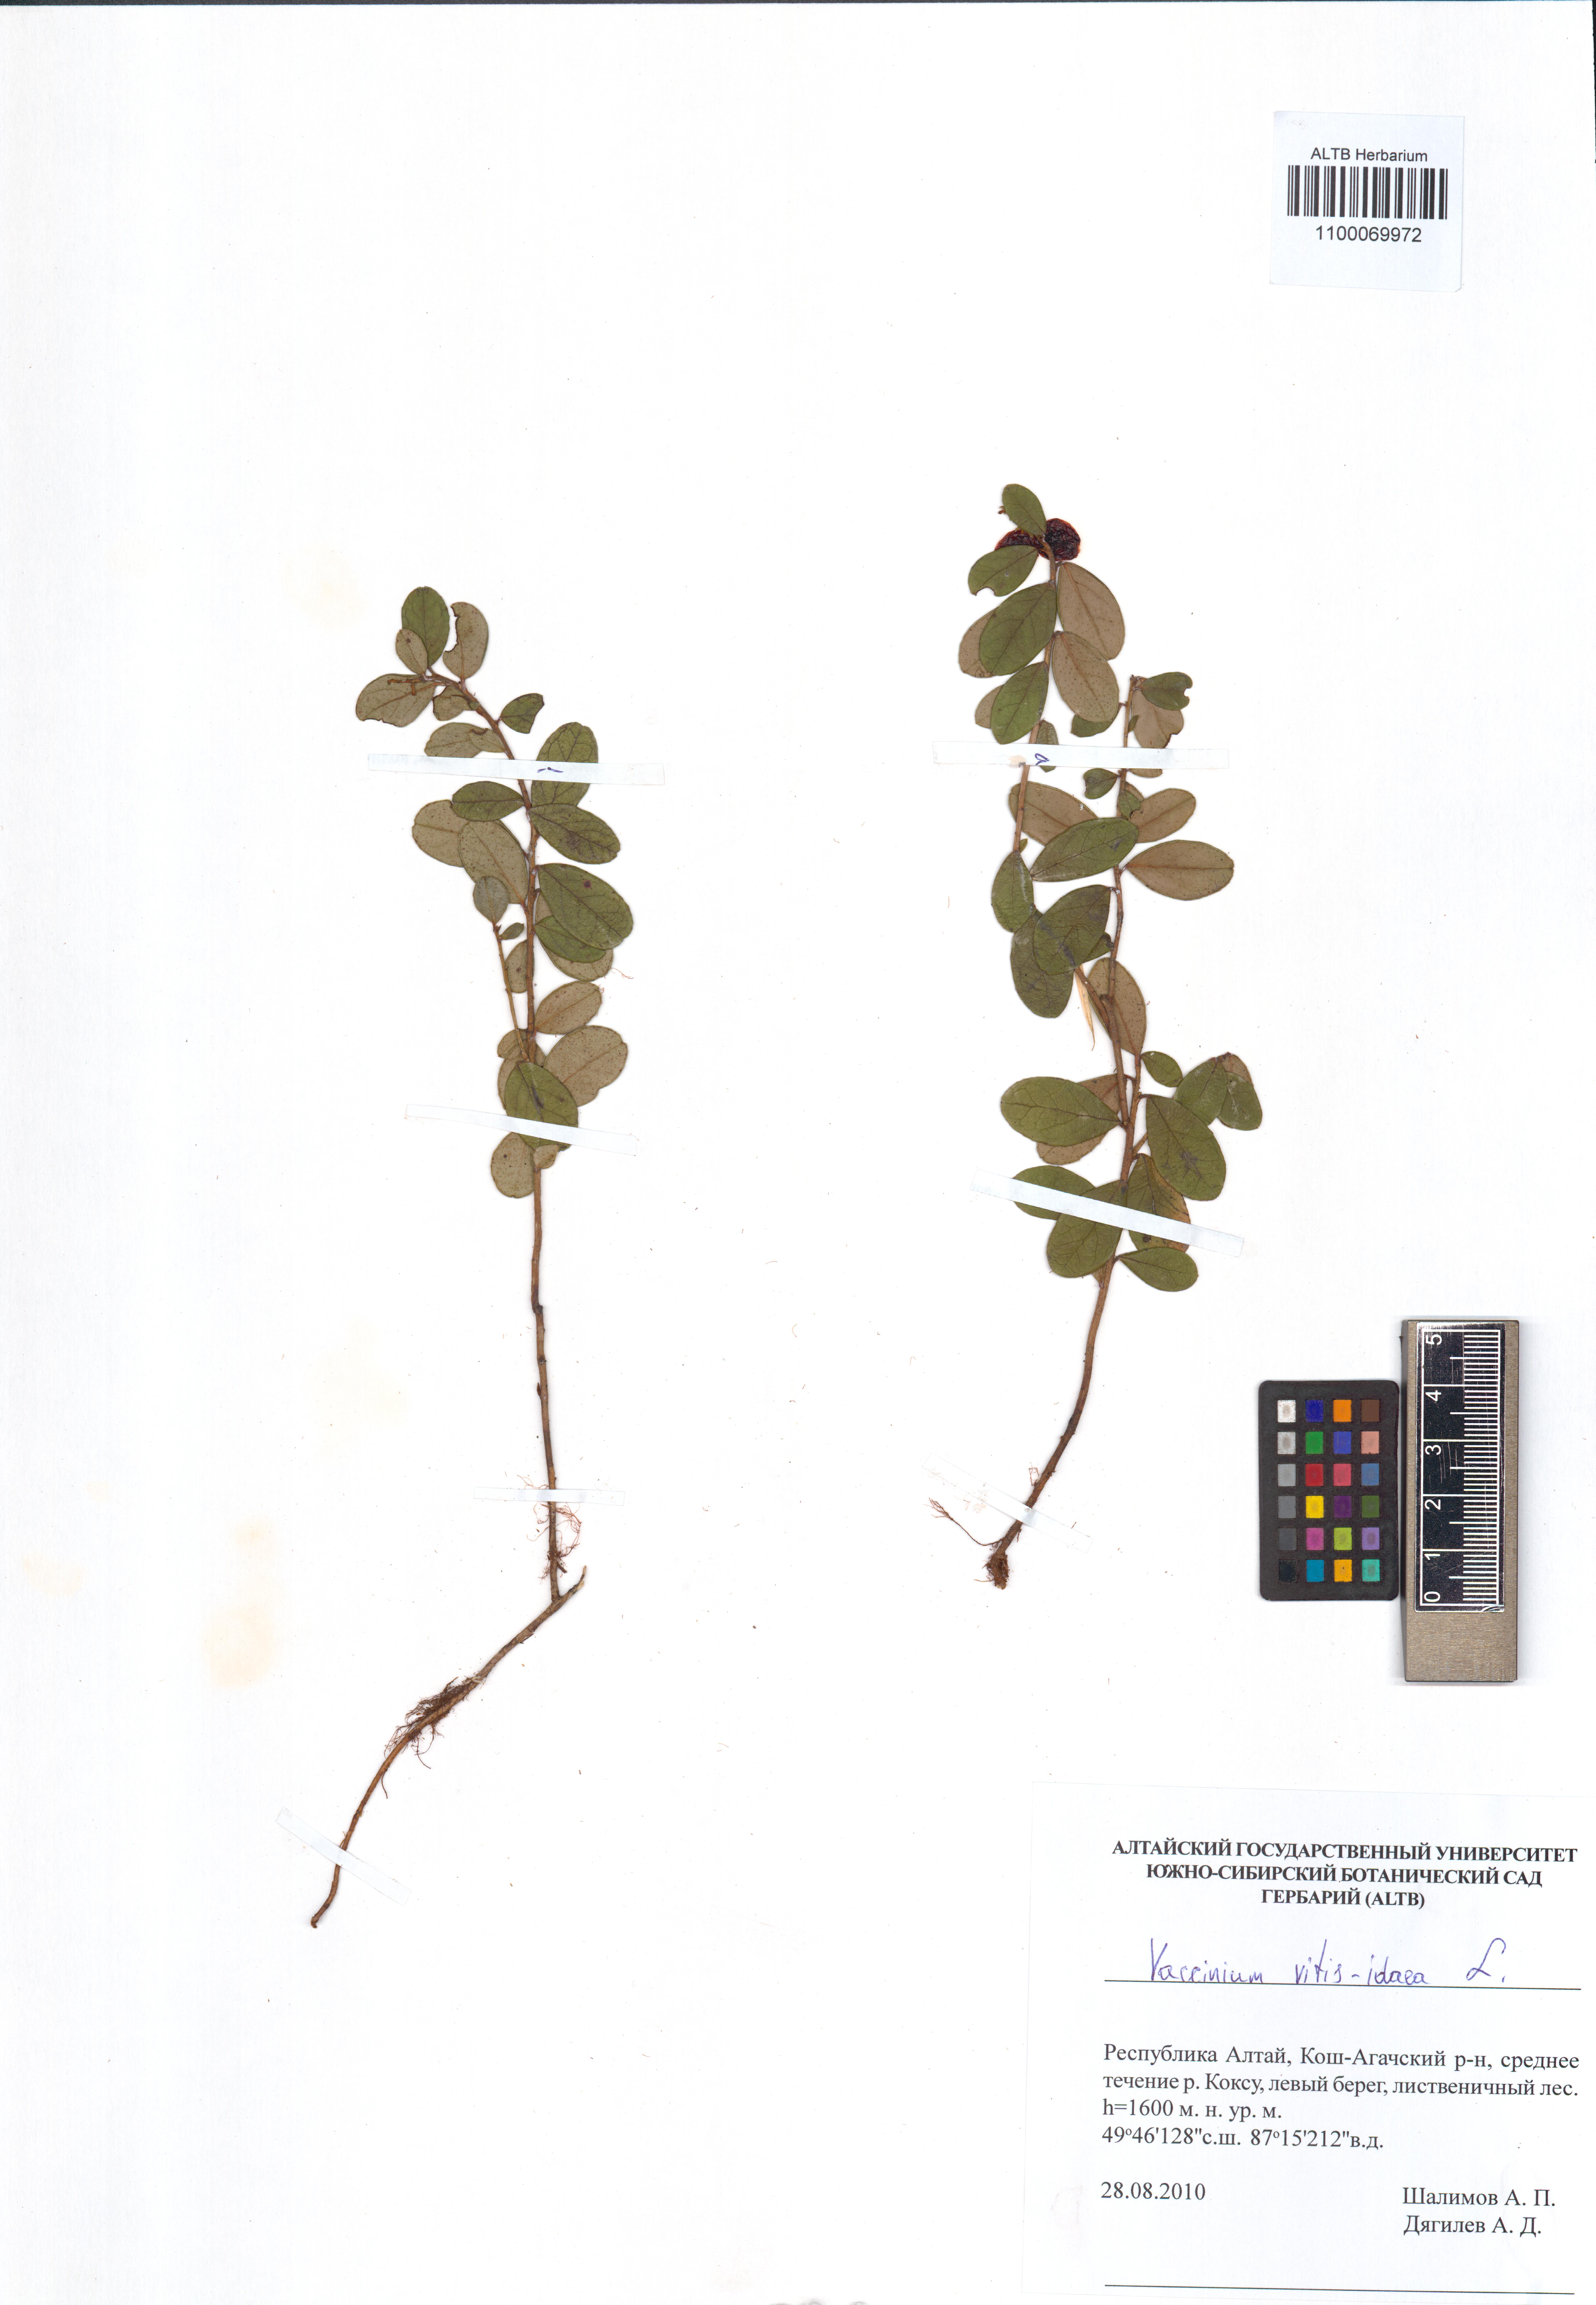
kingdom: Plantae
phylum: Tracheophyta
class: Magnoliopsida
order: Ericales
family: Ericaceae
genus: Vaccinium
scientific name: Vaccinium vitis-idaea
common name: Cowberry
